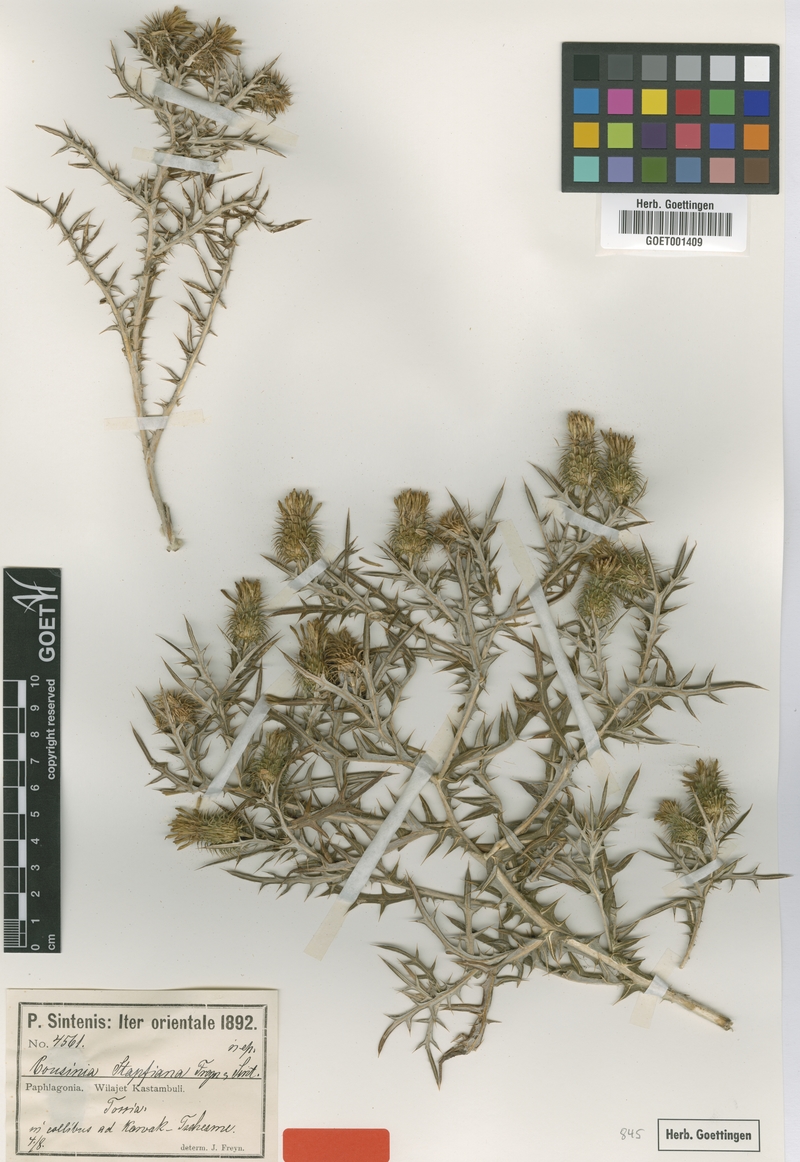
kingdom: Plantae
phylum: Tracheophyta
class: Magnoliopsida
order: Asterales
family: Asteraceae
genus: Cousinia
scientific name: Cousinia stapfiana
